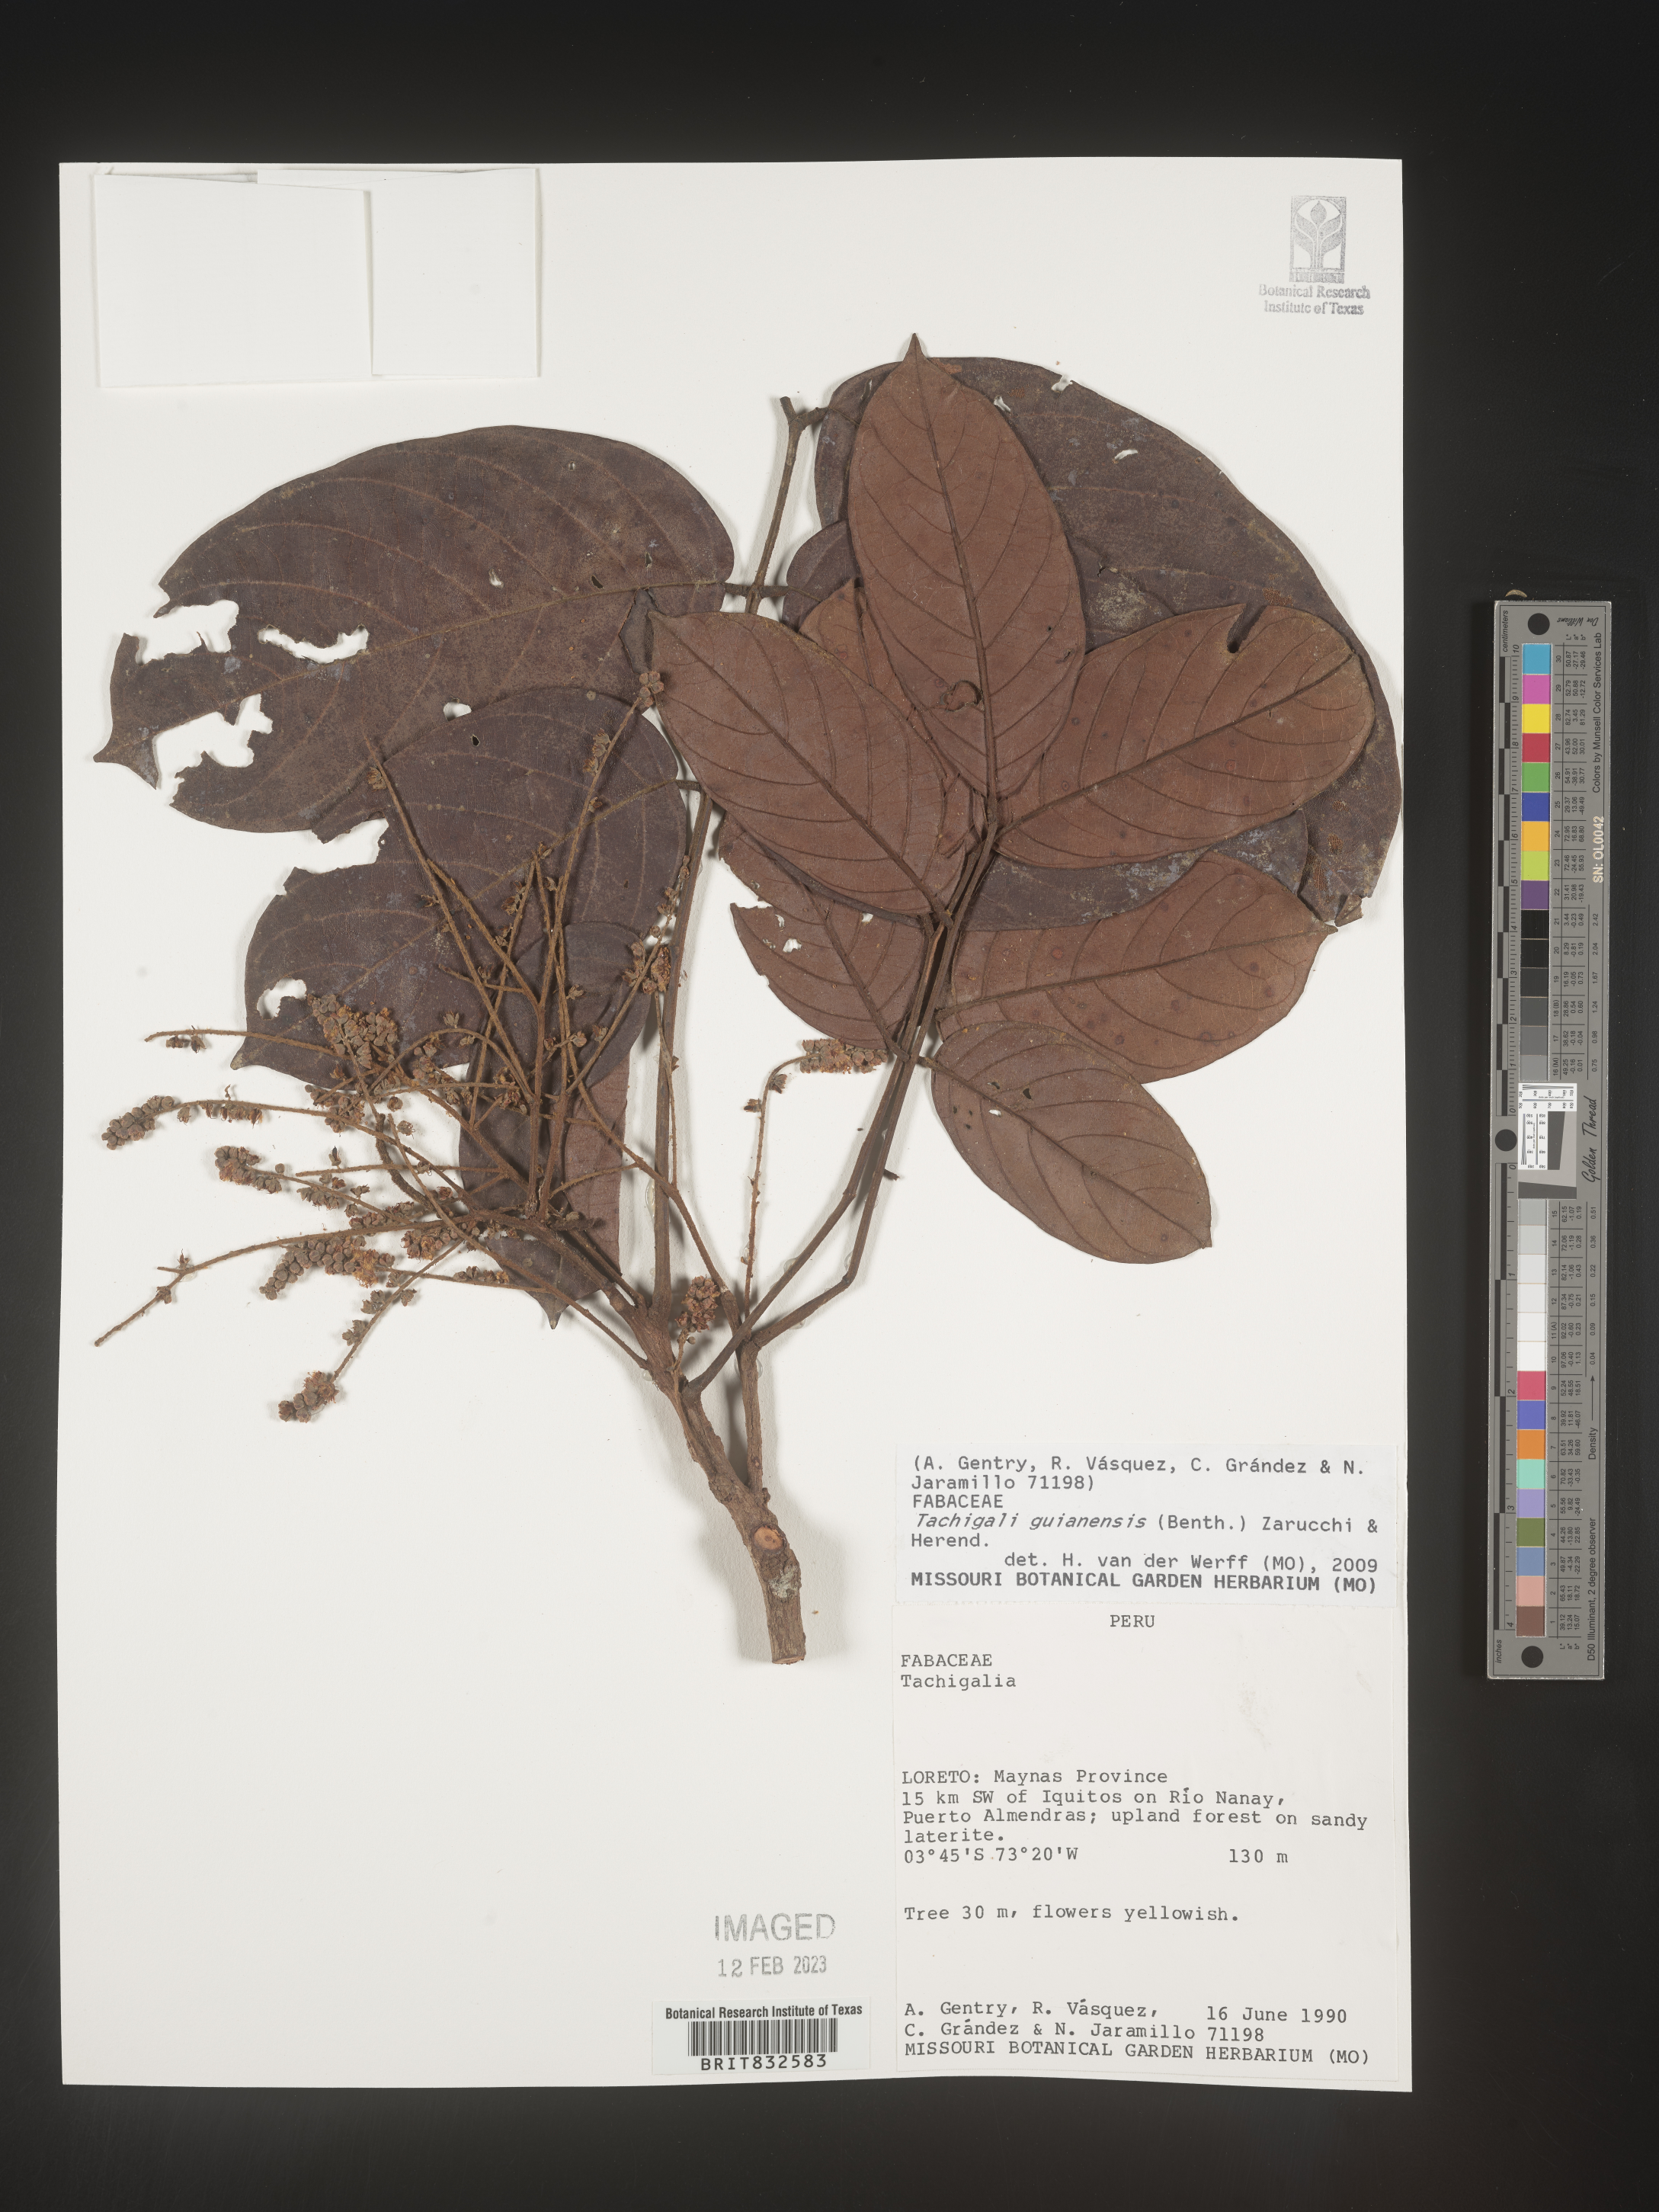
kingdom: Plantae
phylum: Tracheophyta
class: Magnoliopsida
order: Fabales
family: Fabaceae
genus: Tachigali
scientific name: Tachigali
